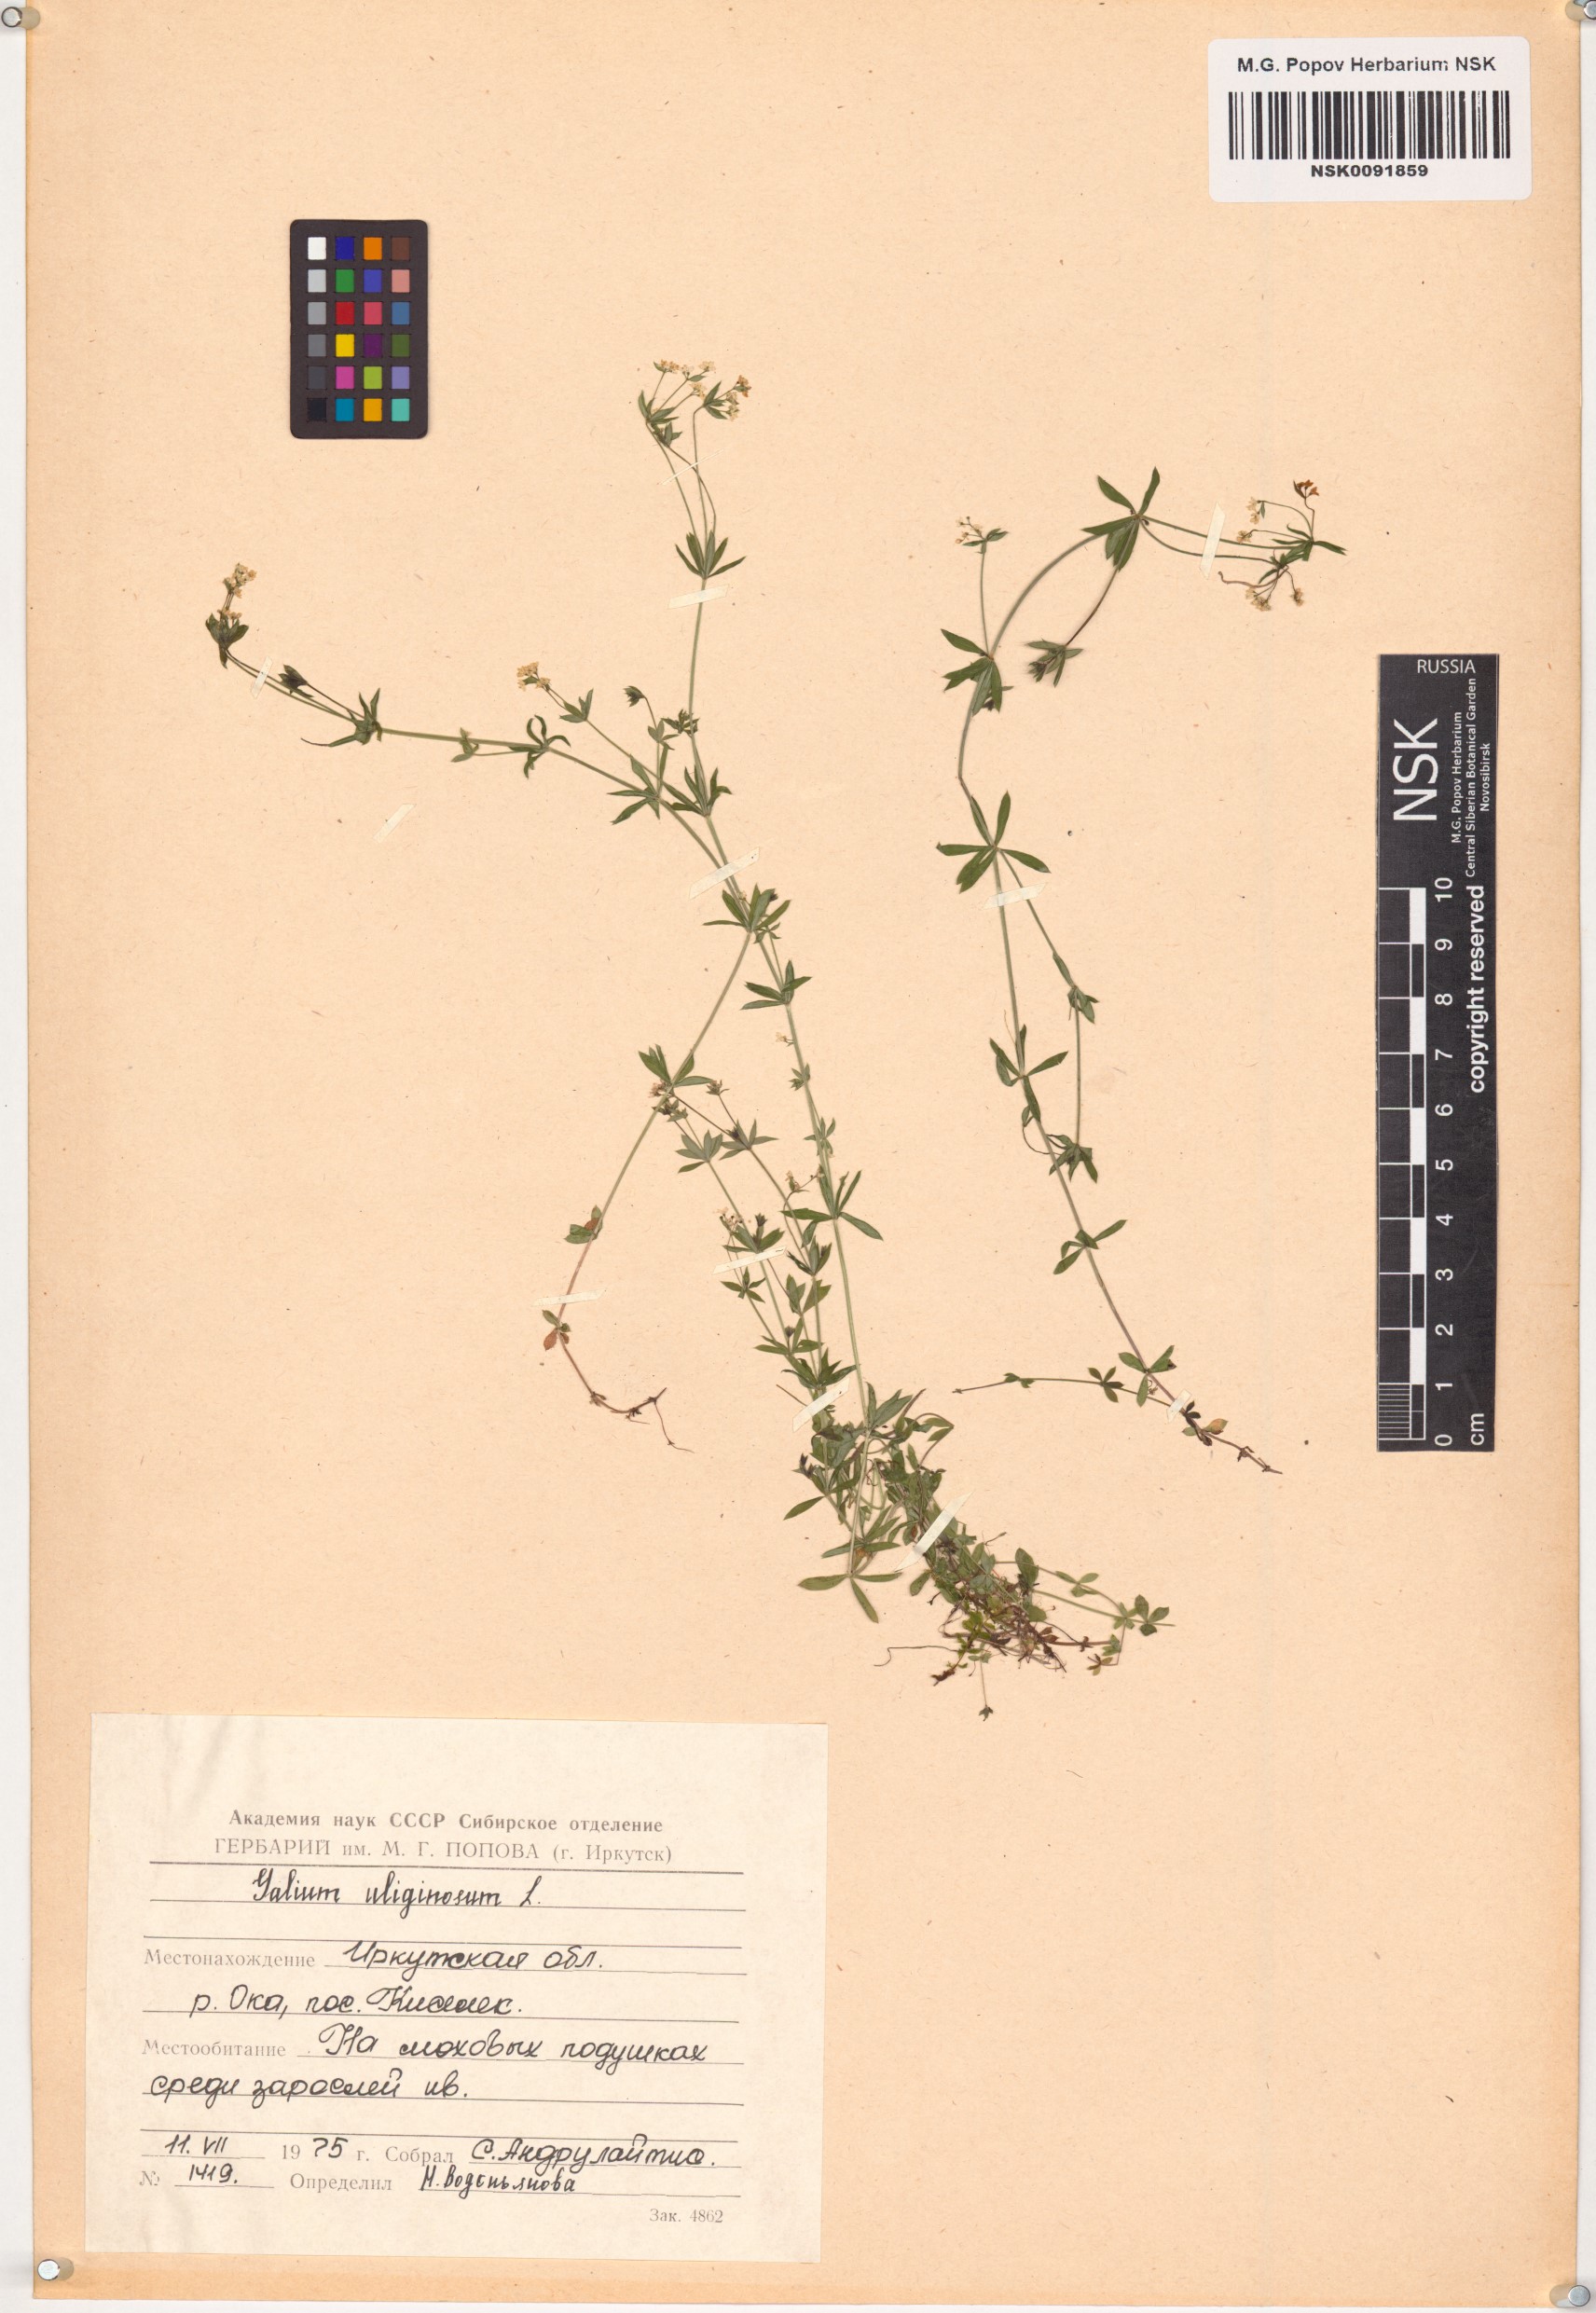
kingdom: Plantae
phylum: Tracheophyta
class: Magnoliopsida
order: Gentianales
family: Rubiaceae
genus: Galium
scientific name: Galium uliginosum
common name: Fen bedstraw
